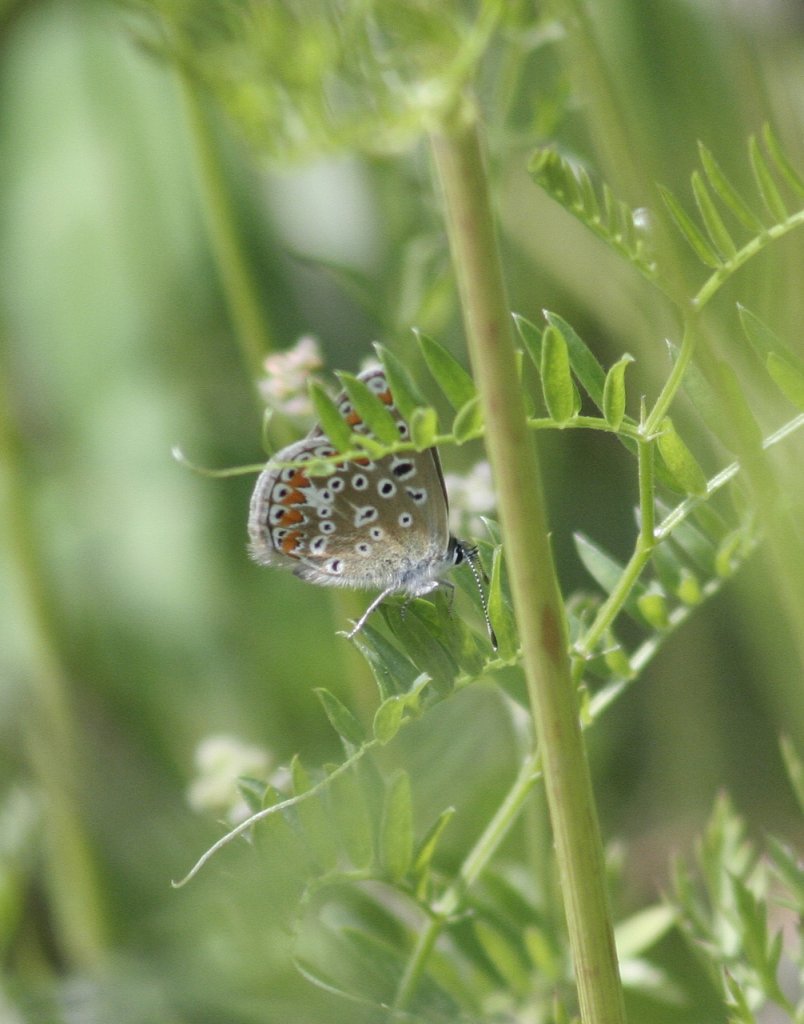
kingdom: Animalia
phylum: Arthropoda
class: Insecta
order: Lepidoptera
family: Lycaenidae
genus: Polyommatus
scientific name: Polyommatus icarus
